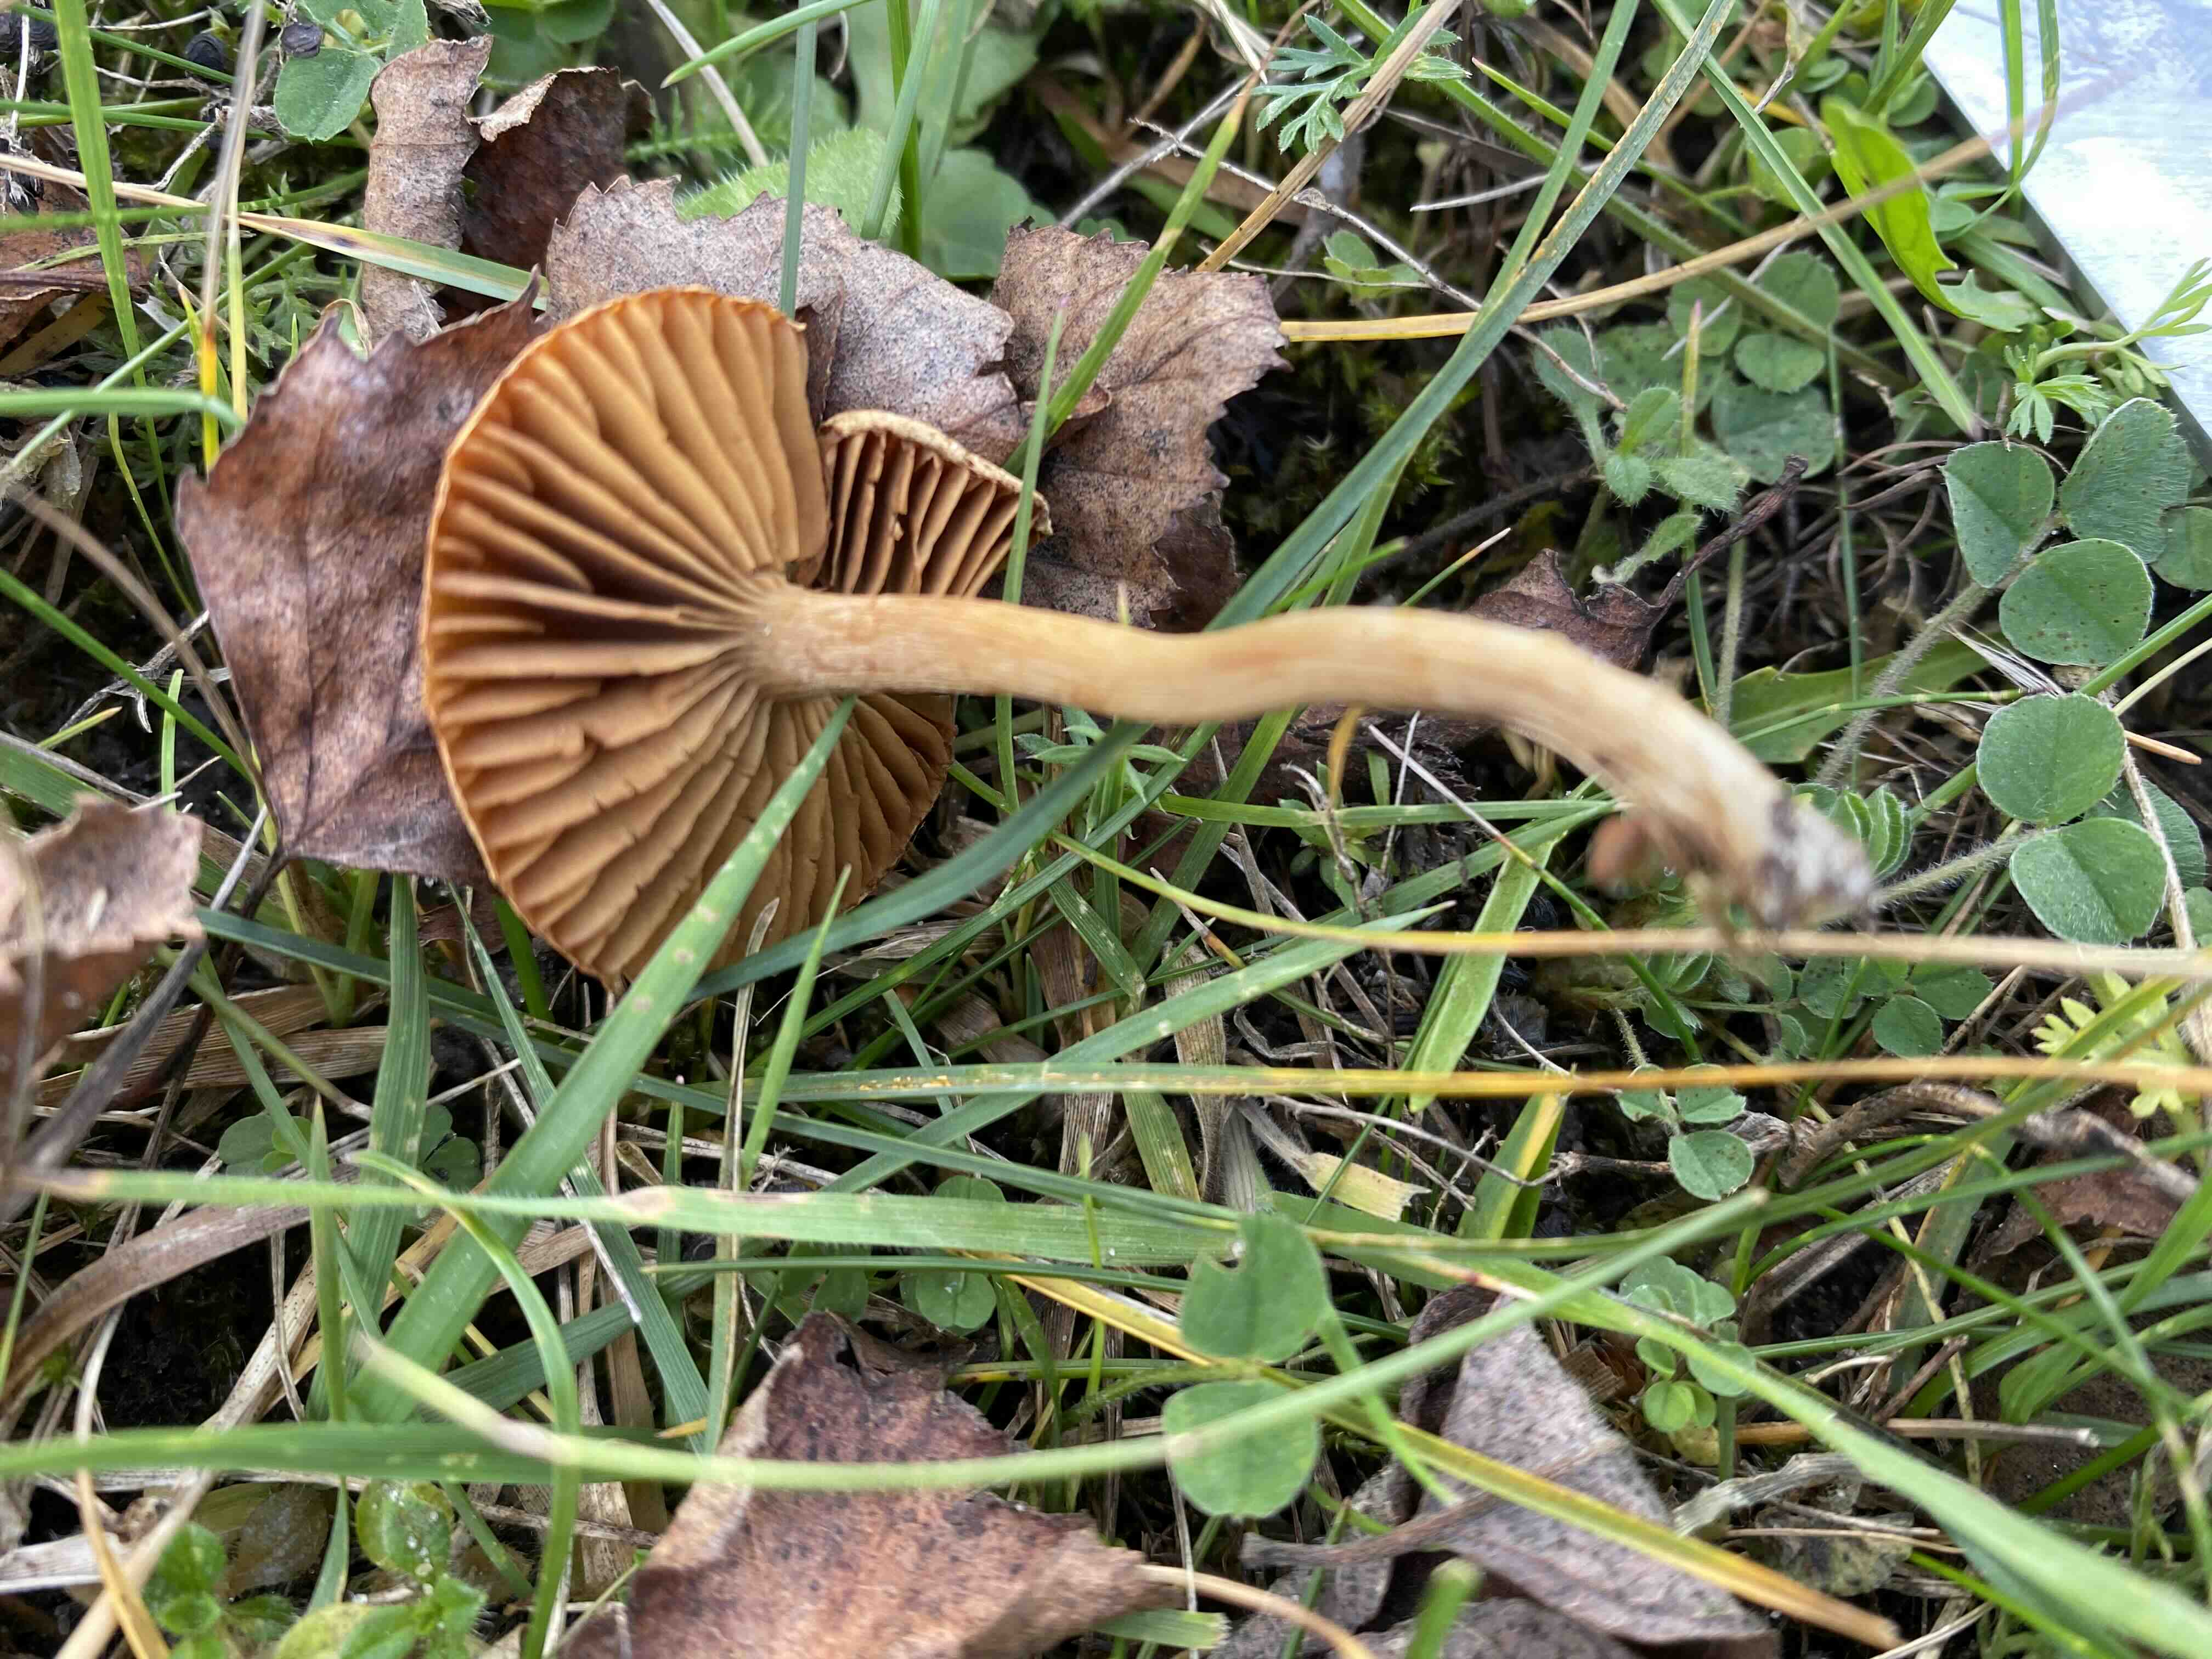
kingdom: Fungi
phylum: Basidiomycota
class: Agaricomycetes
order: Agaricales
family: Strophariaceae
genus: Agrocybe
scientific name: Agrocybe
